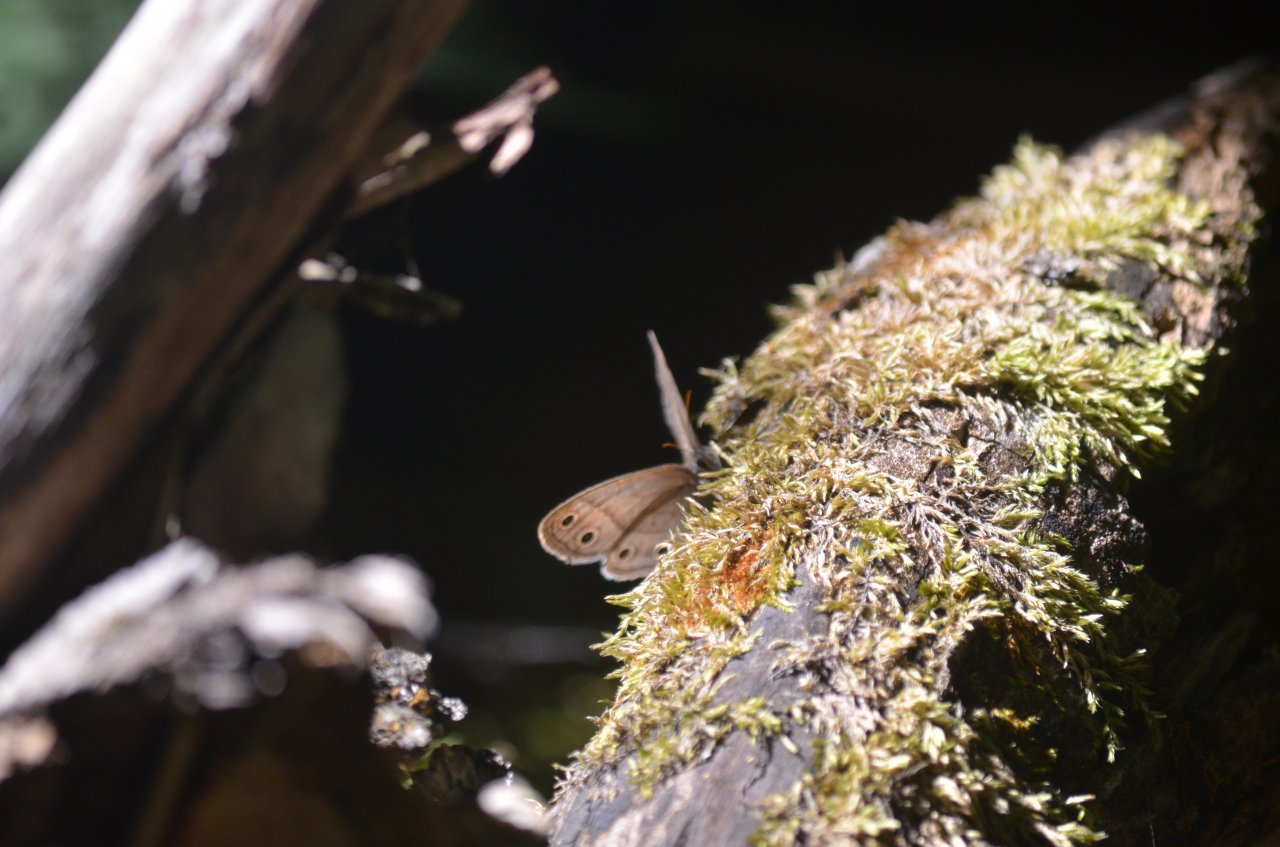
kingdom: Animalia
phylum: Arthropoda
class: Insecta
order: Lepidoptera
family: Nymphalidae
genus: Euptychia
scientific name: Euptychia cymela
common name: Little Wood Satyr
